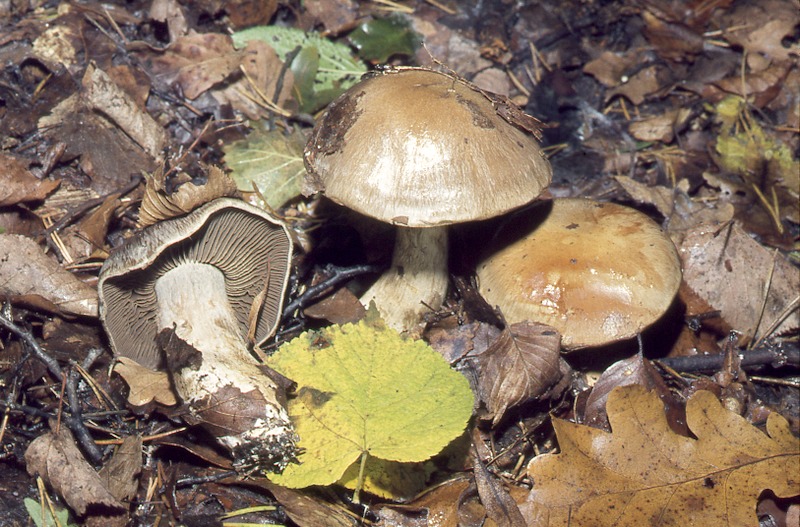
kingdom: Fungi
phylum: Basidiomycota
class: Agaricomycetes
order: Agaricales
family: Cortinariaceae
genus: Cortinarius
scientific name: Cortinarius infractus
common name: Bitter webcap
